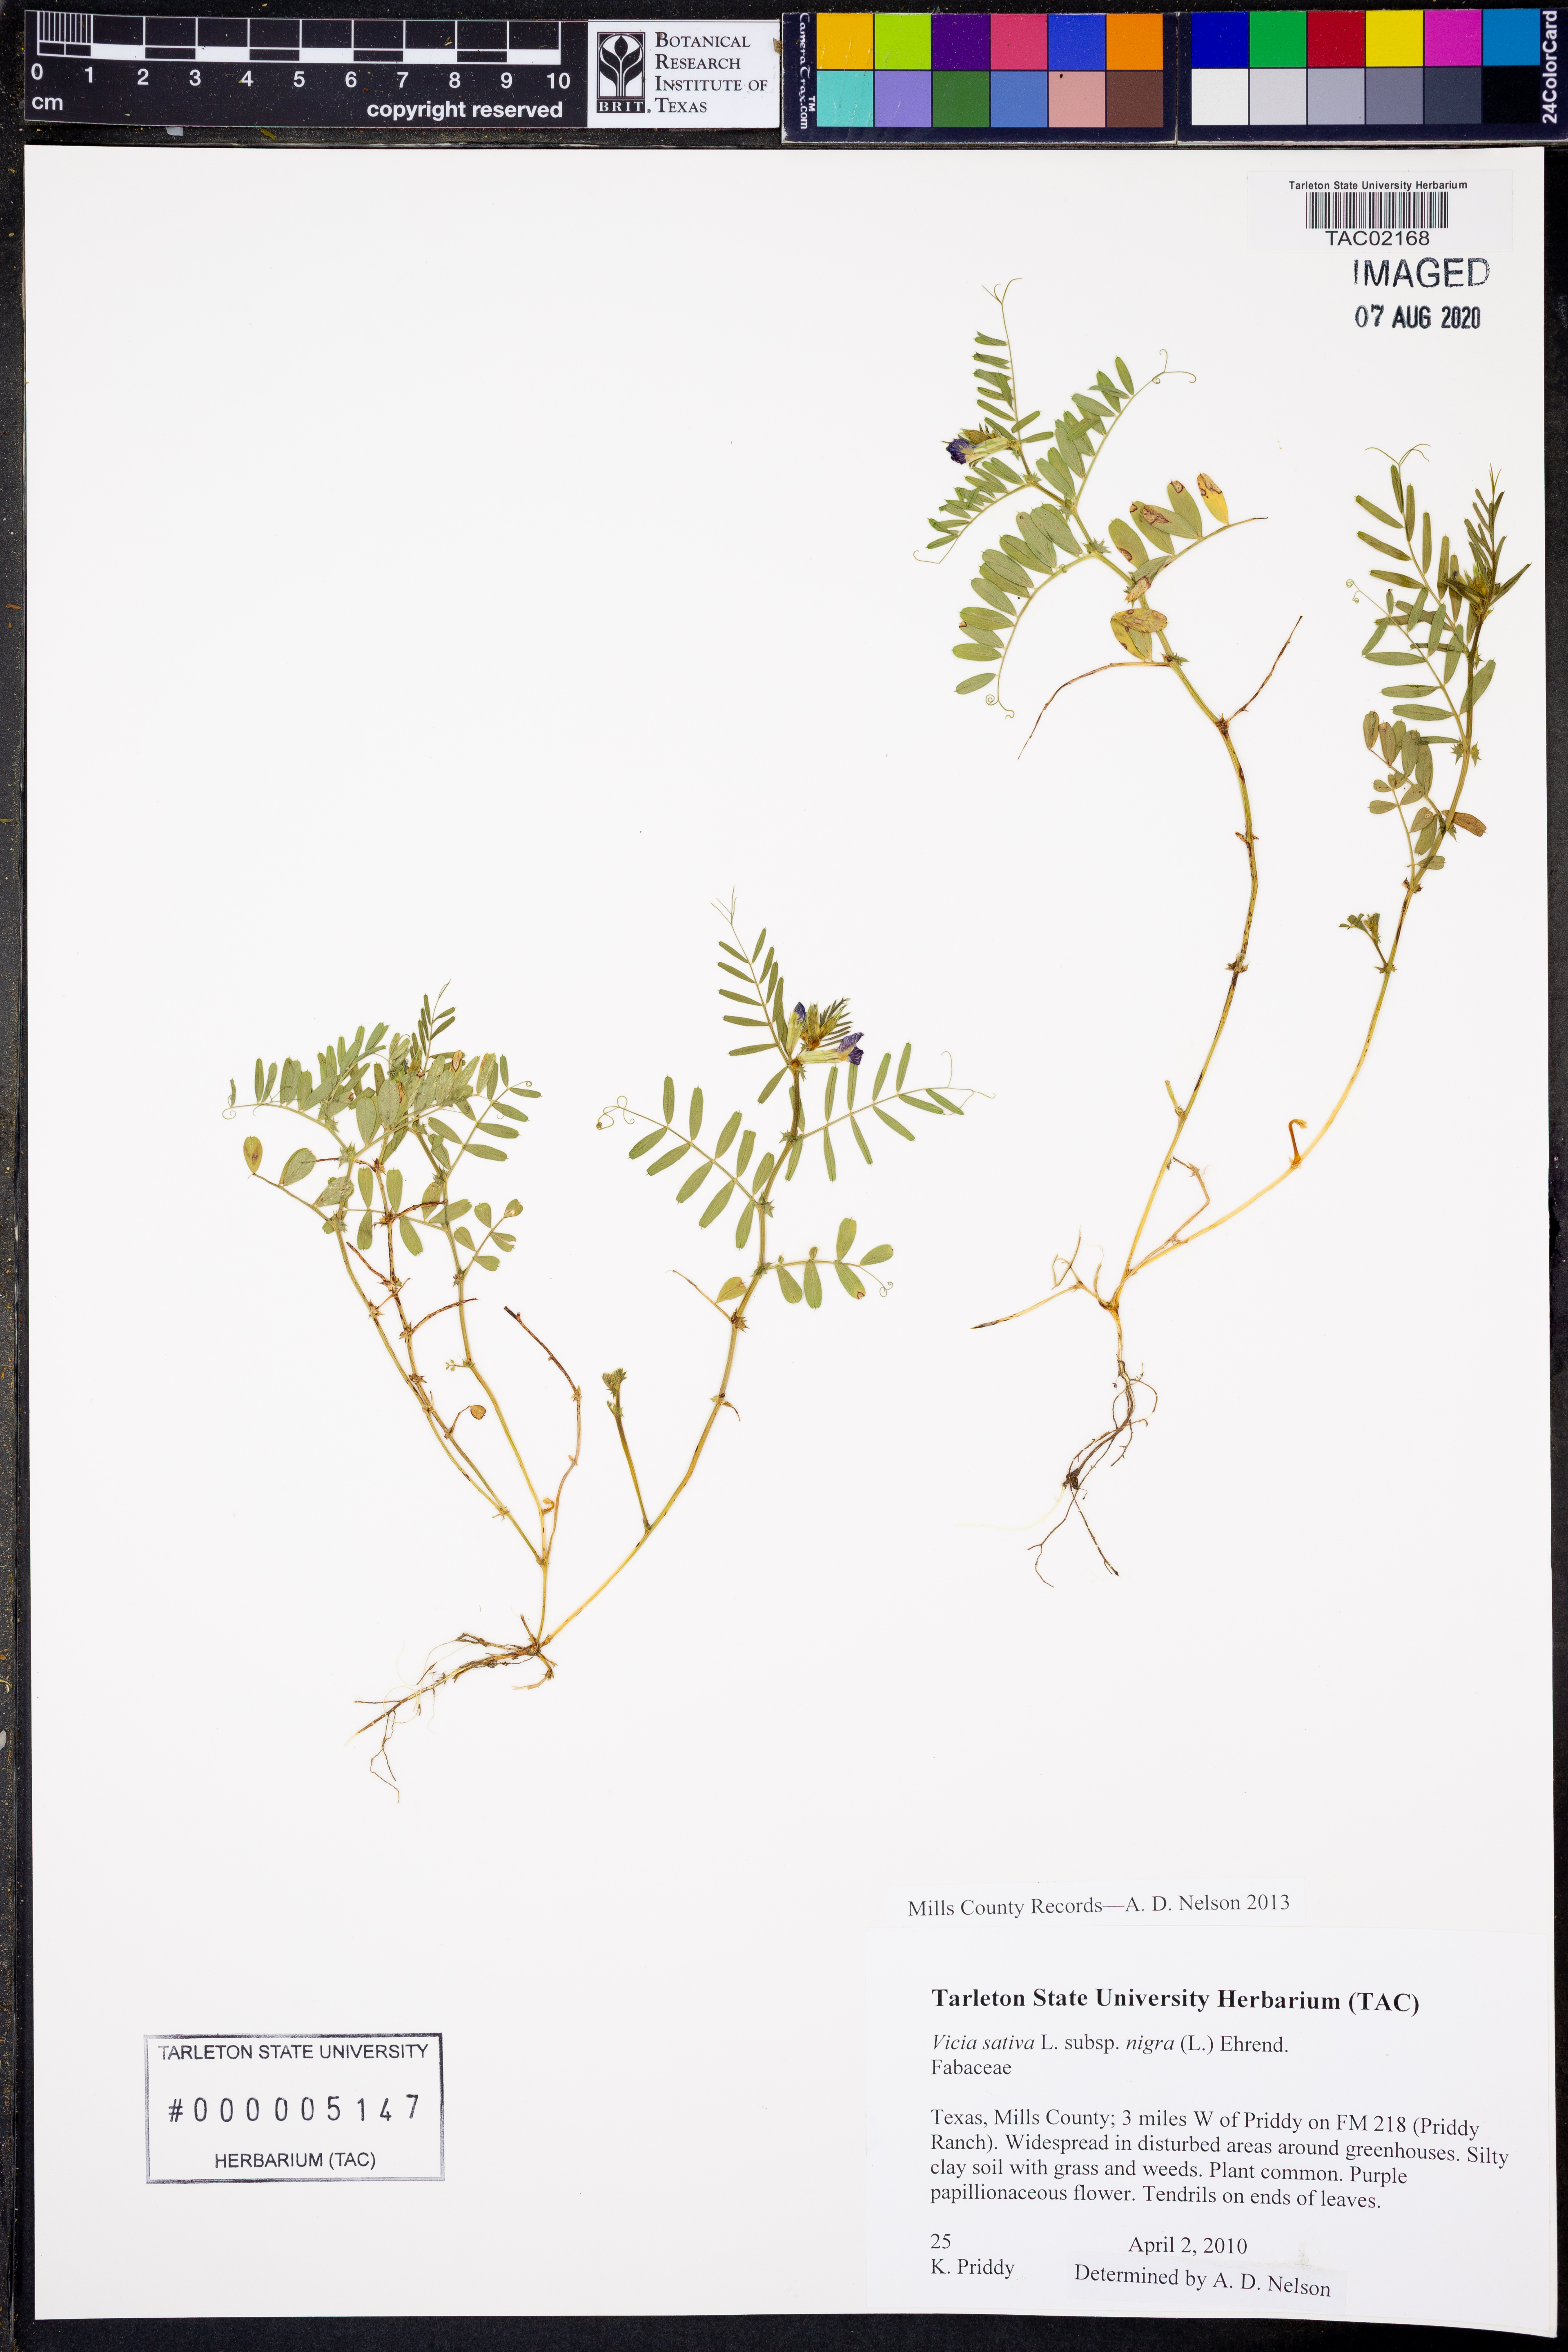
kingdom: Plantae
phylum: Tracheophyta
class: Magnoliopsida
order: Fabales
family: Fabaceae
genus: Vicia
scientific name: Vicia sativa
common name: Garden vetch
